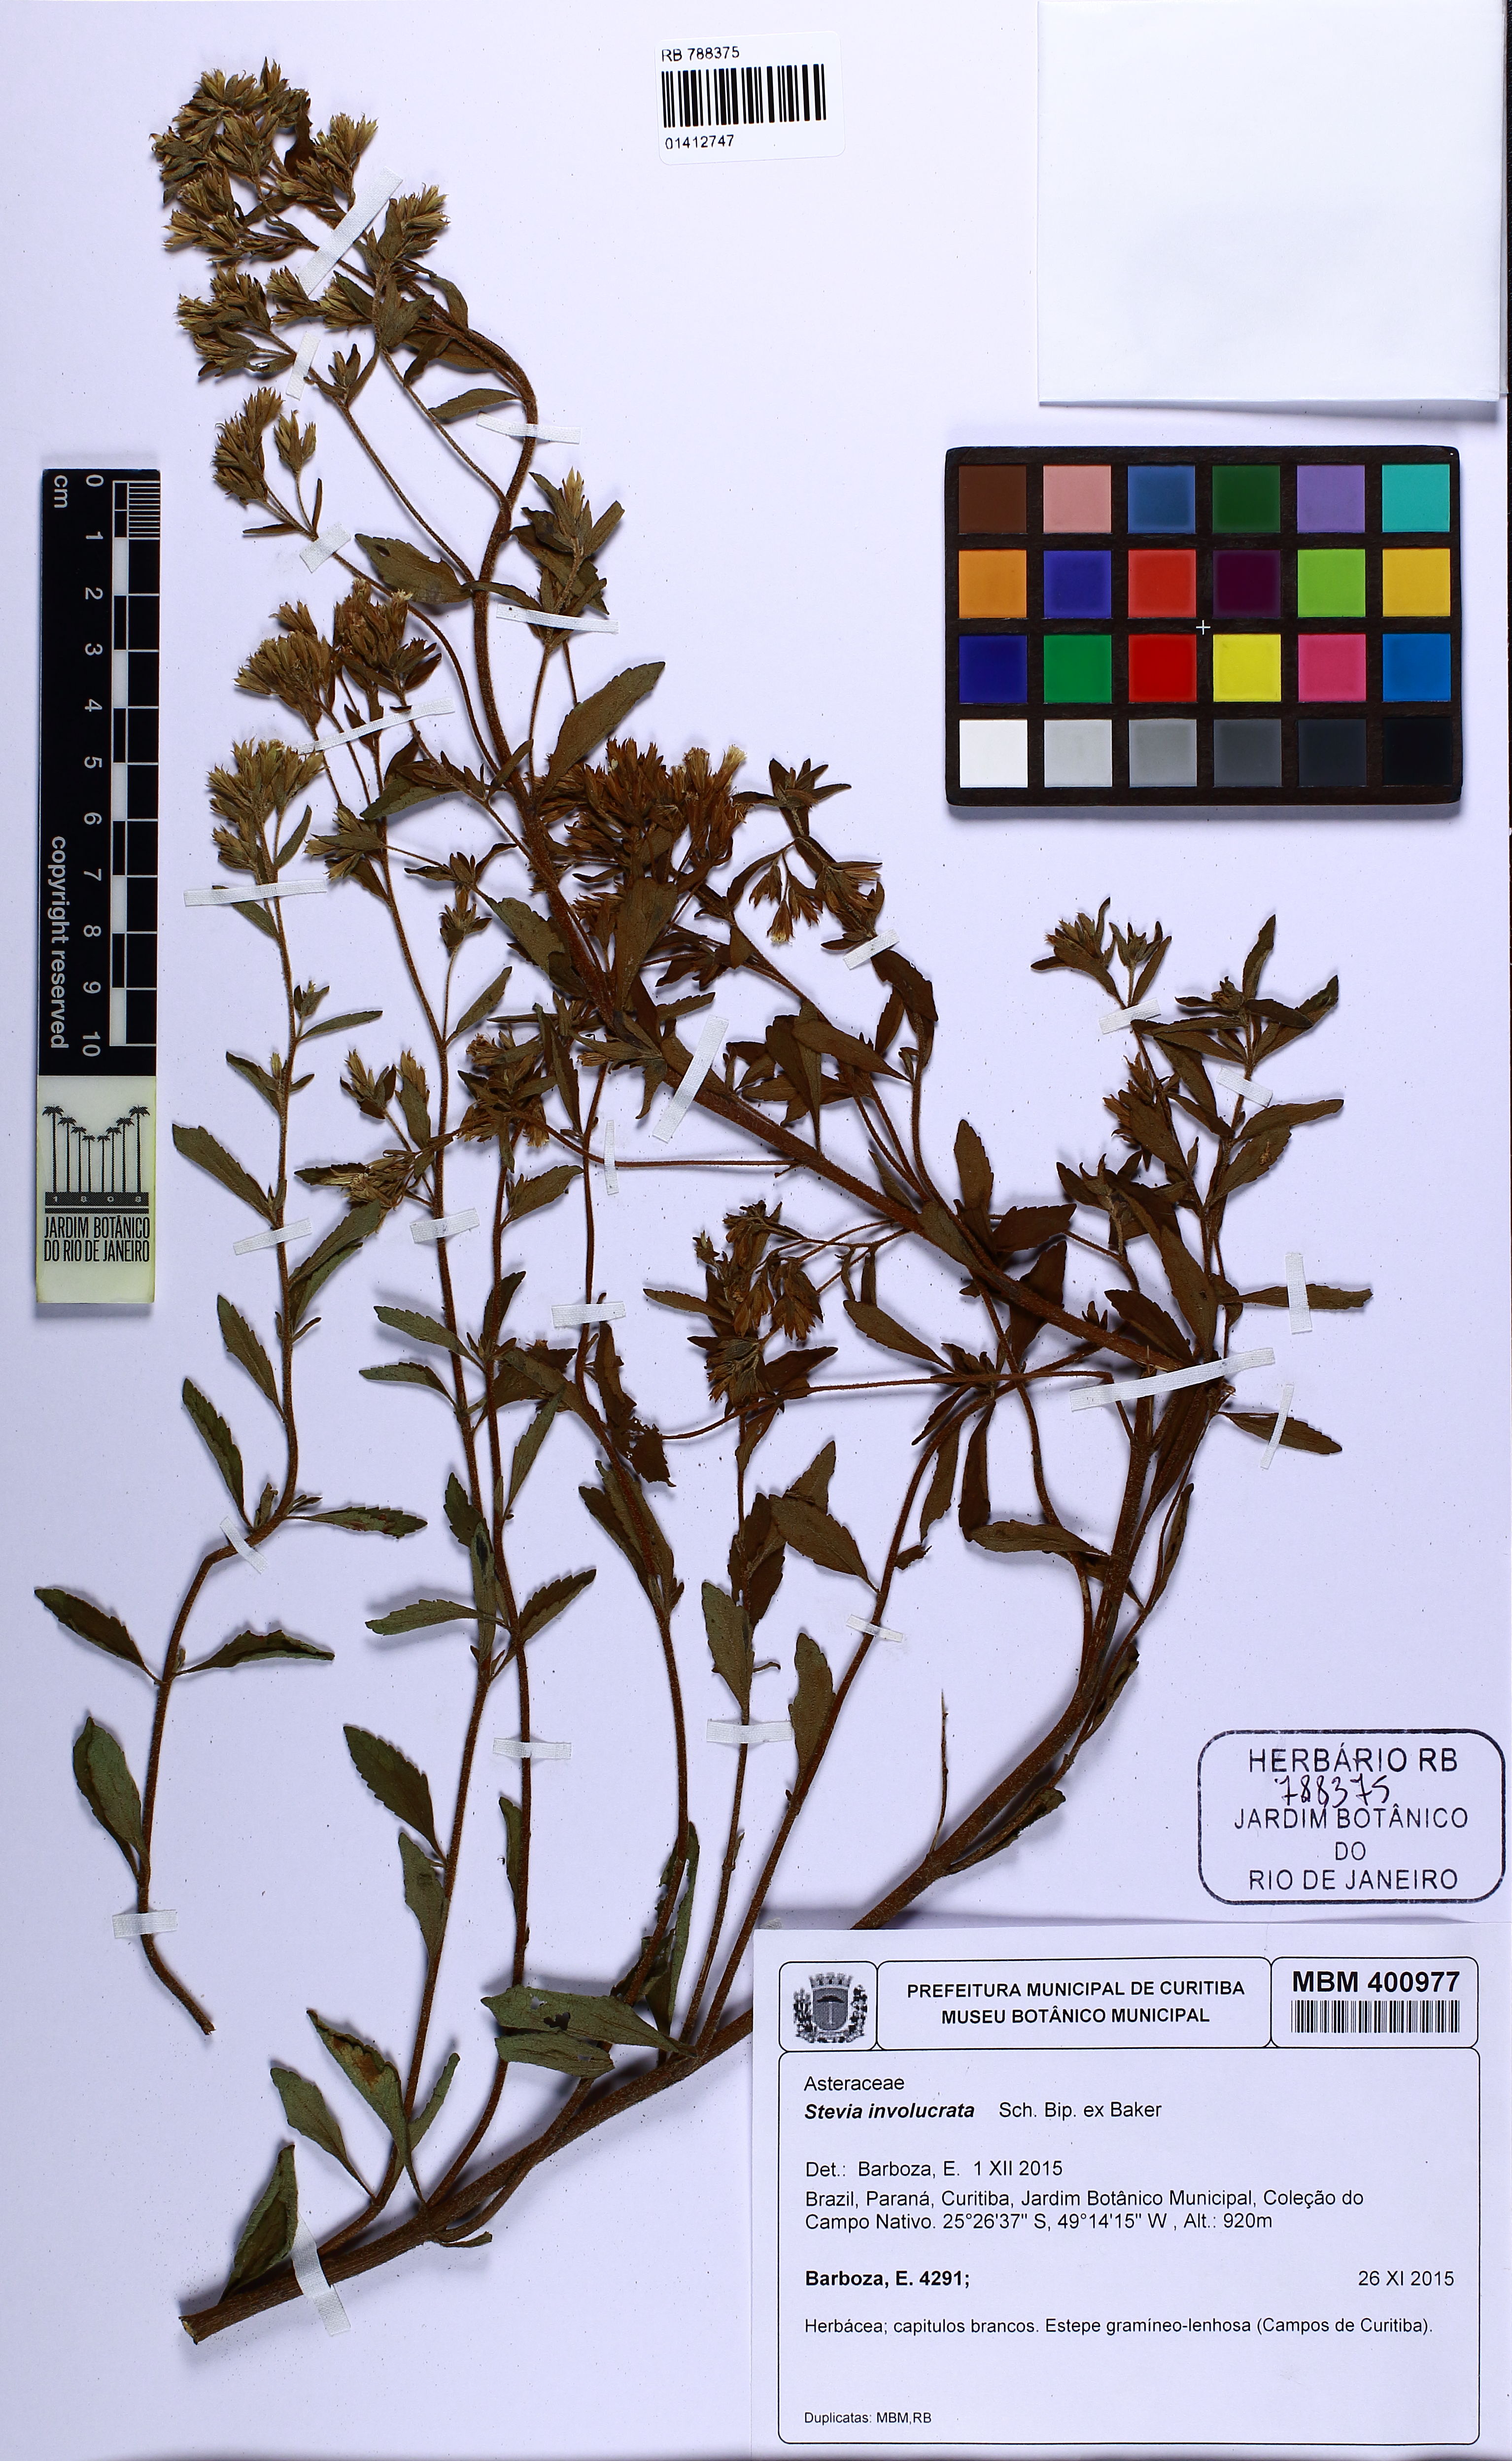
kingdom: Plantae
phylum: Tracheophyta
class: Magnoliopsida
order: Asterales
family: Asteraceae
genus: Stevia
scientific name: Stevia involucrata
